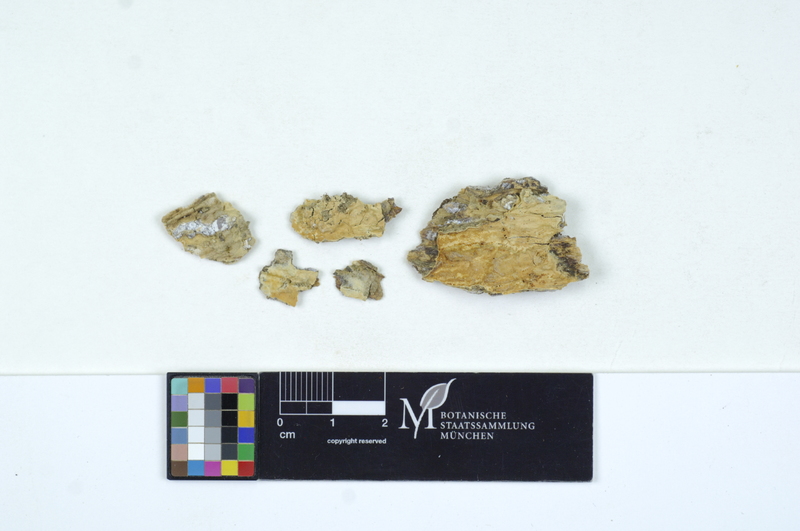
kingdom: Plantae
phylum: Tracheophyta
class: Pinopsida
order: Pinales
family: Pinaceae
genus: Picea
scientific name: Picea
